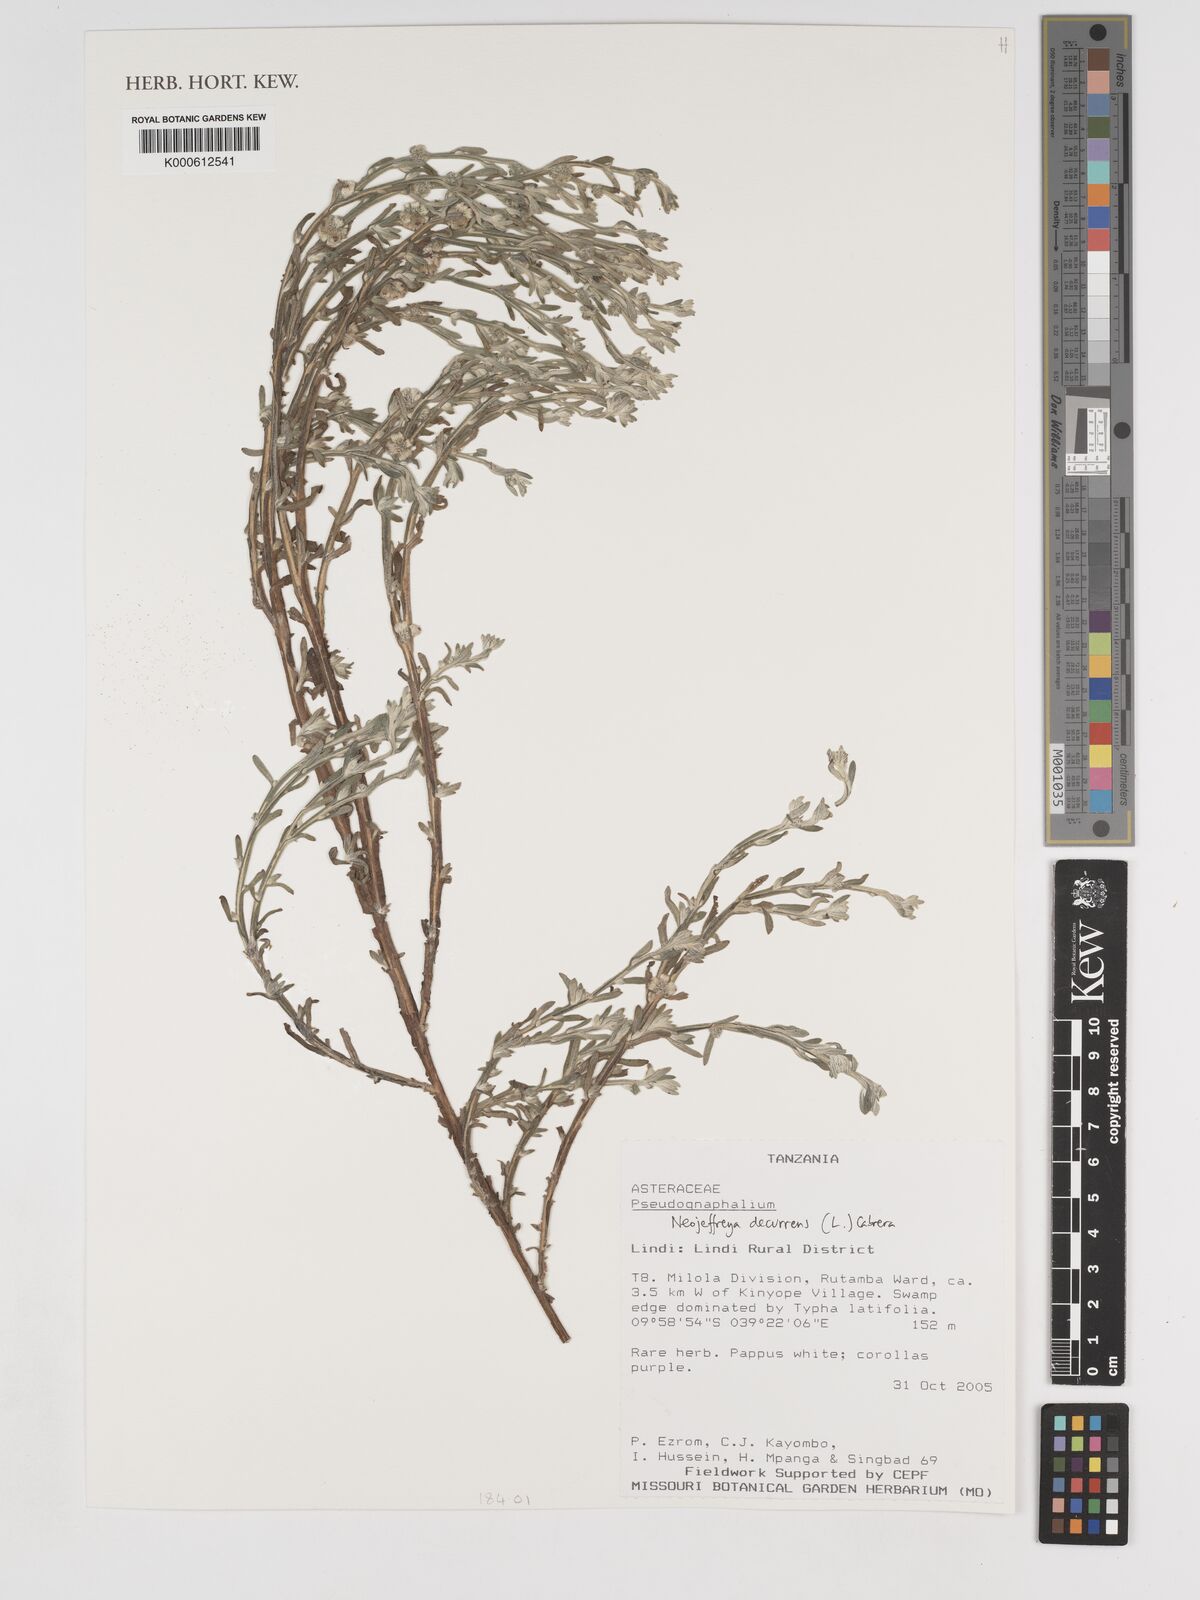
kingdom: Plantae
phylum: Tracheophyta
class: Magnoliopsida
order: Asterales
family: Asteraceae
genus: Neojeffreya
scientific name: Neojeffreya decurrens
